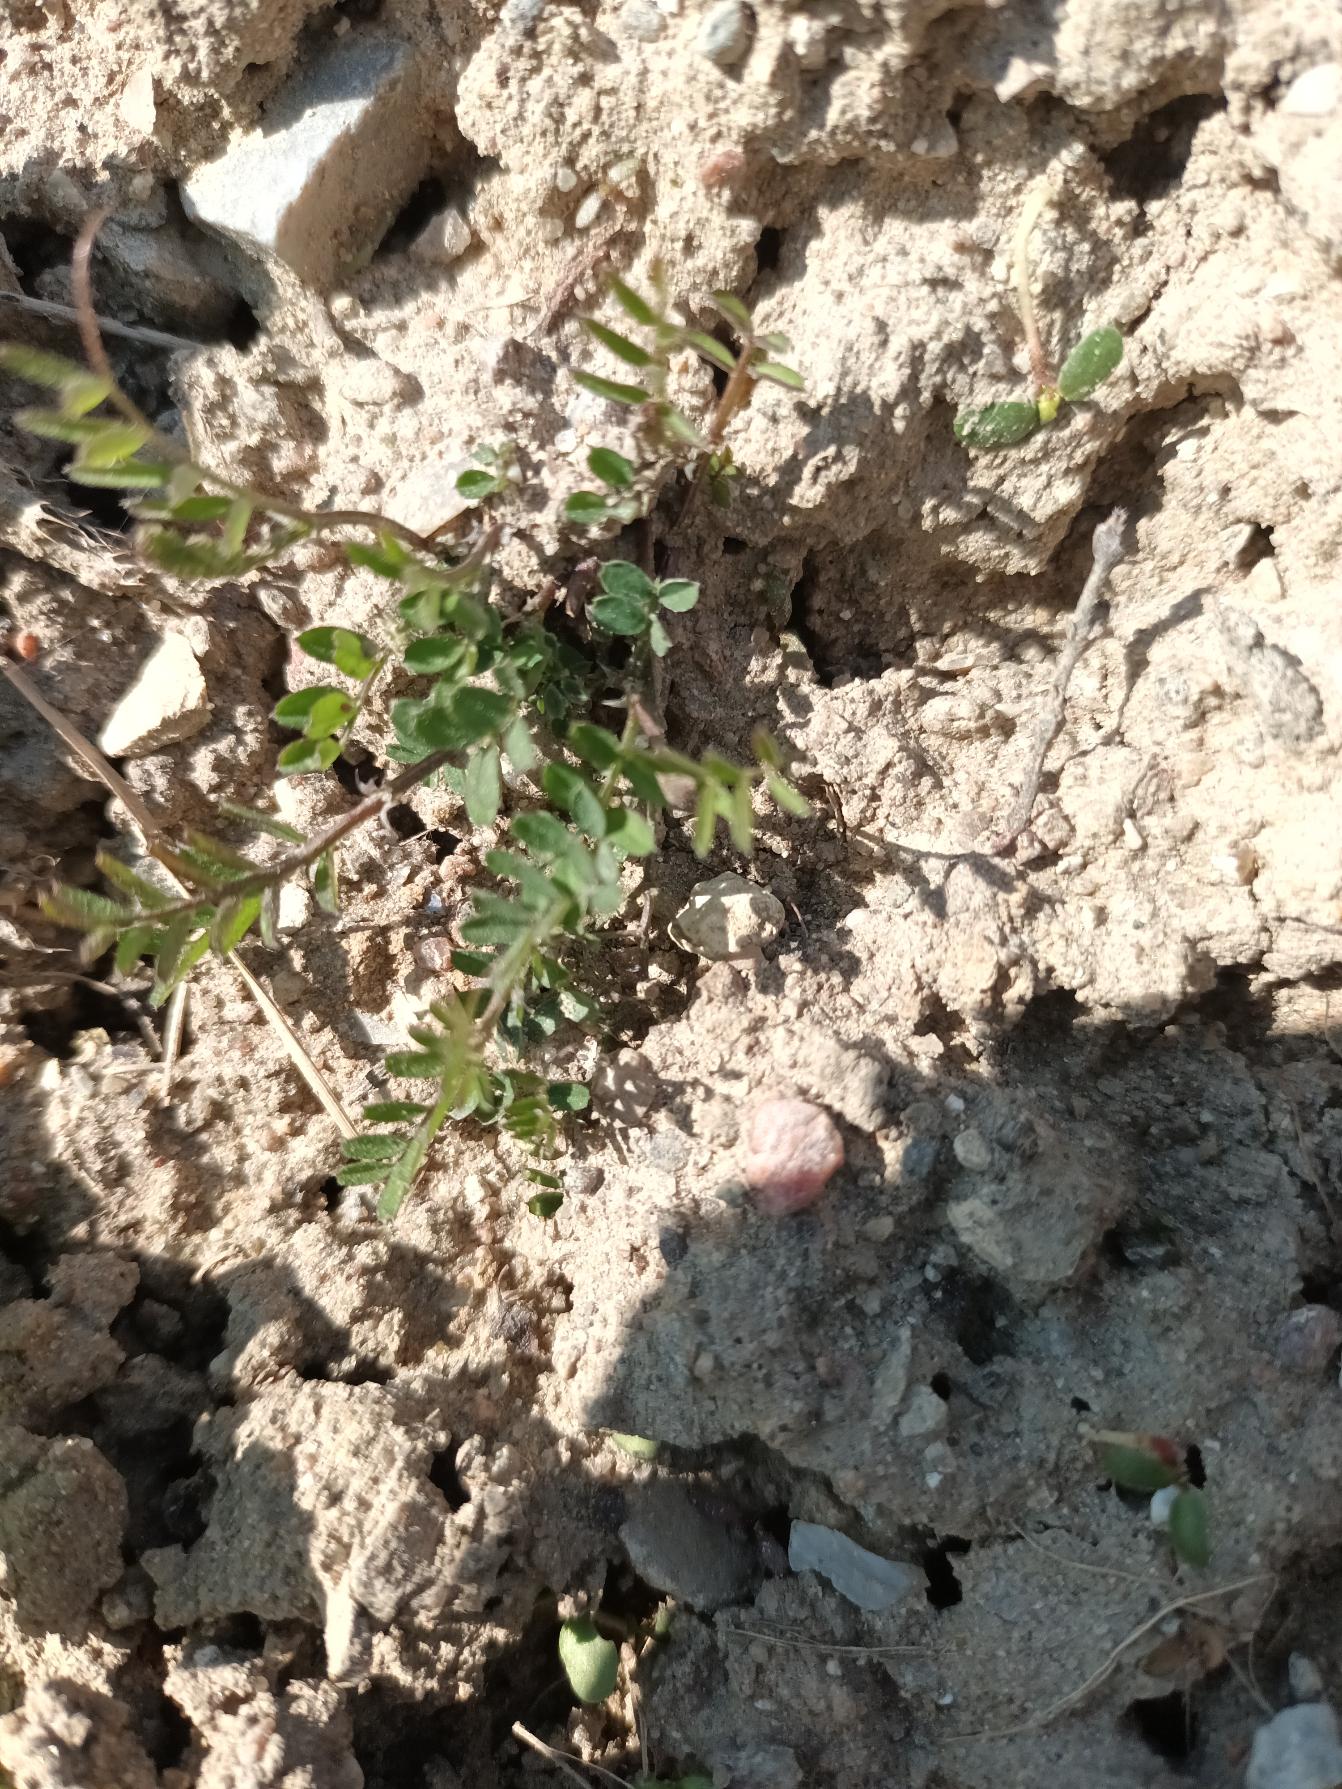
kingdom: Plantae
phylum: Tracheophyta
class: Magnoliopsida
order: Fabales
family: Fabaceae
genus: Vicia
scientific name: Vicia hirsuta
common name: Tofrøet vikke
